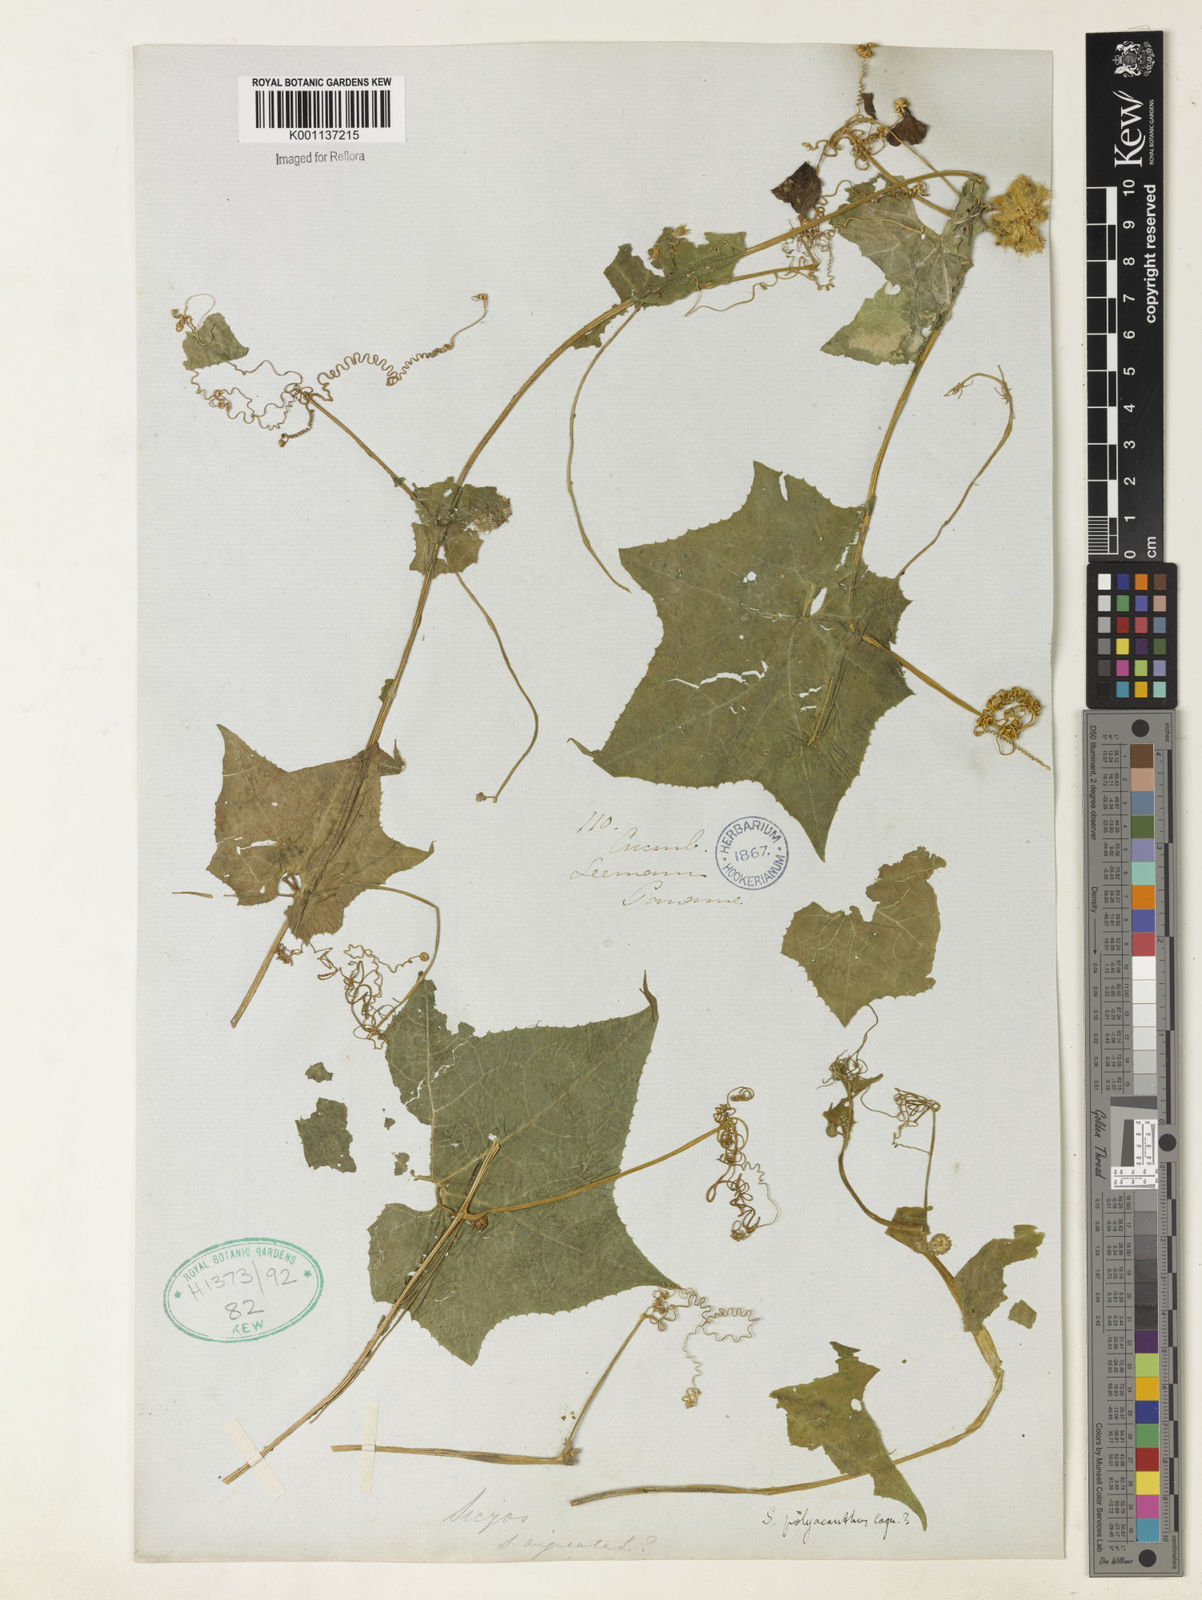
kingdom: Plantae
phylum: Tracheophyta
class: Magnoliopsida
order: Cucurbitales
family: Cucurbitaceae
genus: Sicyos
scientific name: Sicyos polyacanthos
